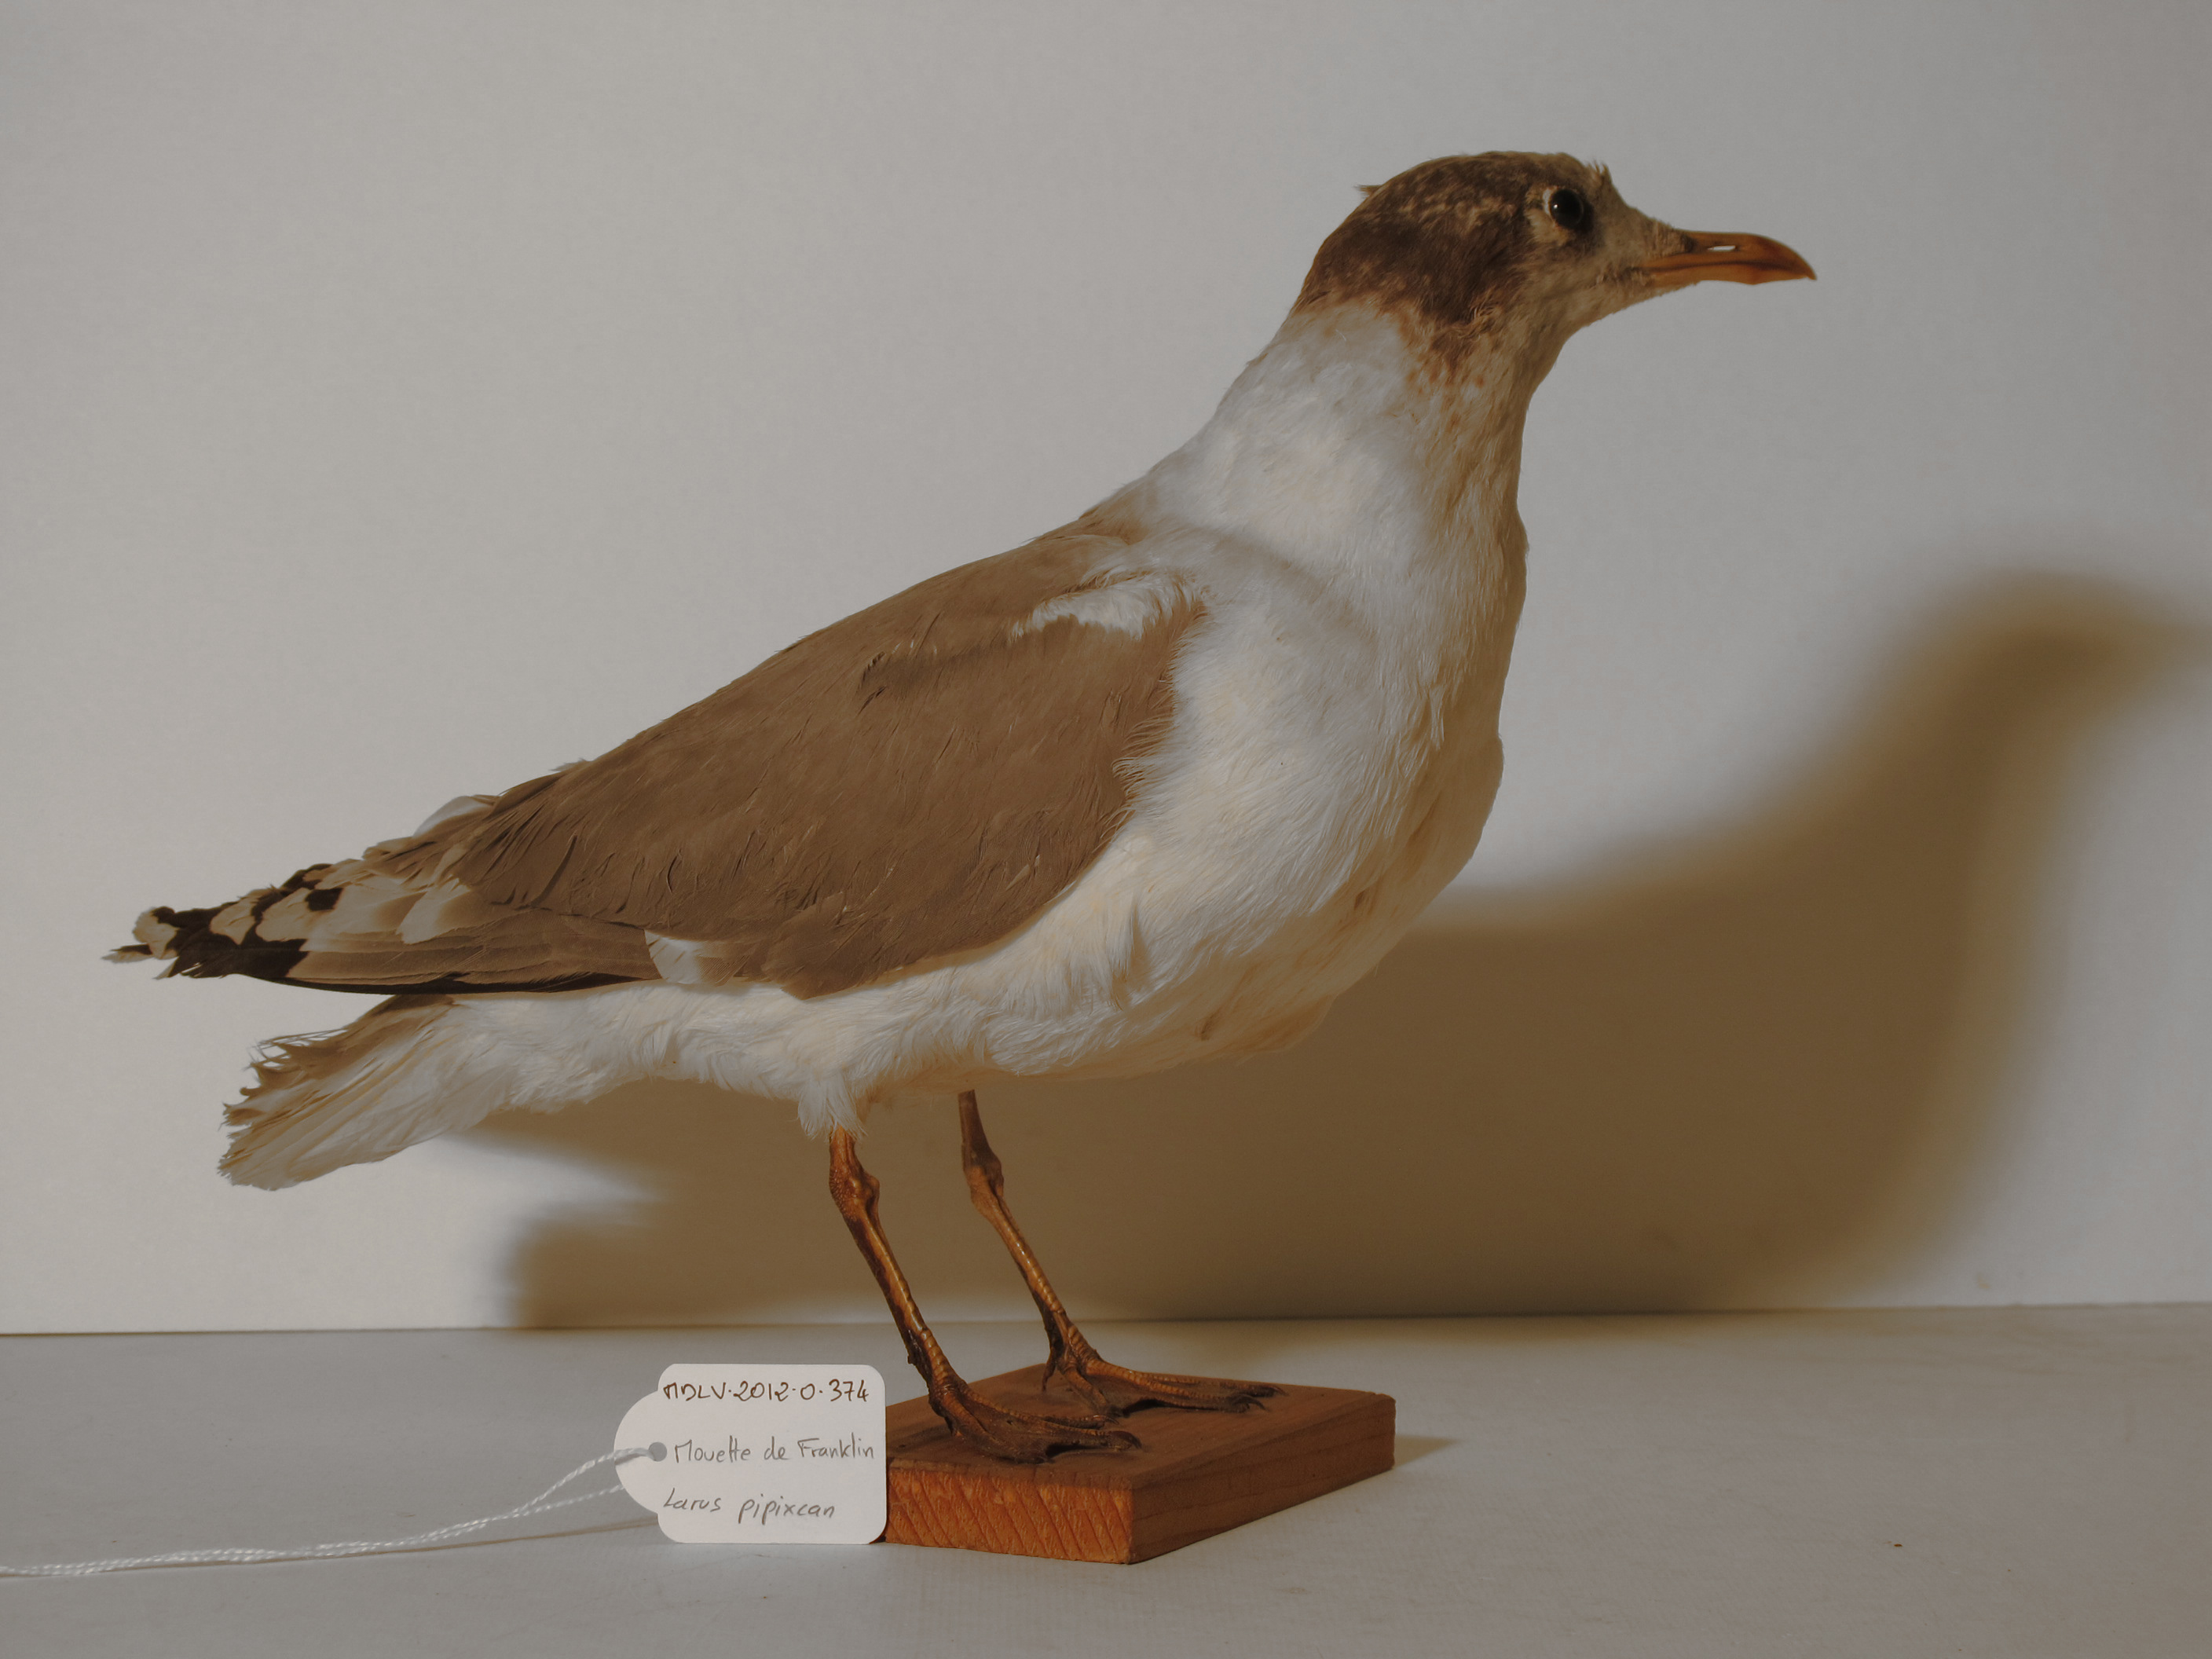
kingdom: Animalia
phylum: Chordata
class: Aves
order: Charadriiformes
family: Laridae
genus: Leucophaeus
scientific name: Leucophaeus pipixcan
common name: Franklin's Gull
